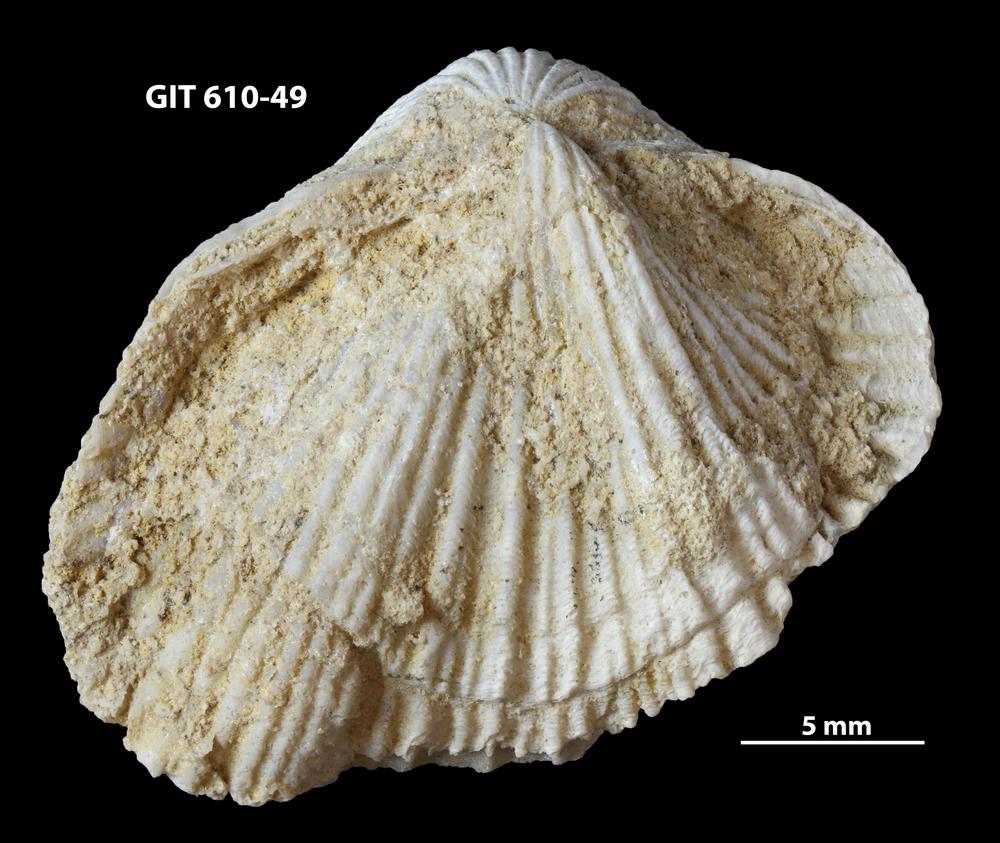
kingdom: Animalia
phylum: Brachiopoda
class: Rhynchonellata
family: Triplesiidae
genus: Cliftonia
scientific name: Cliftonia
